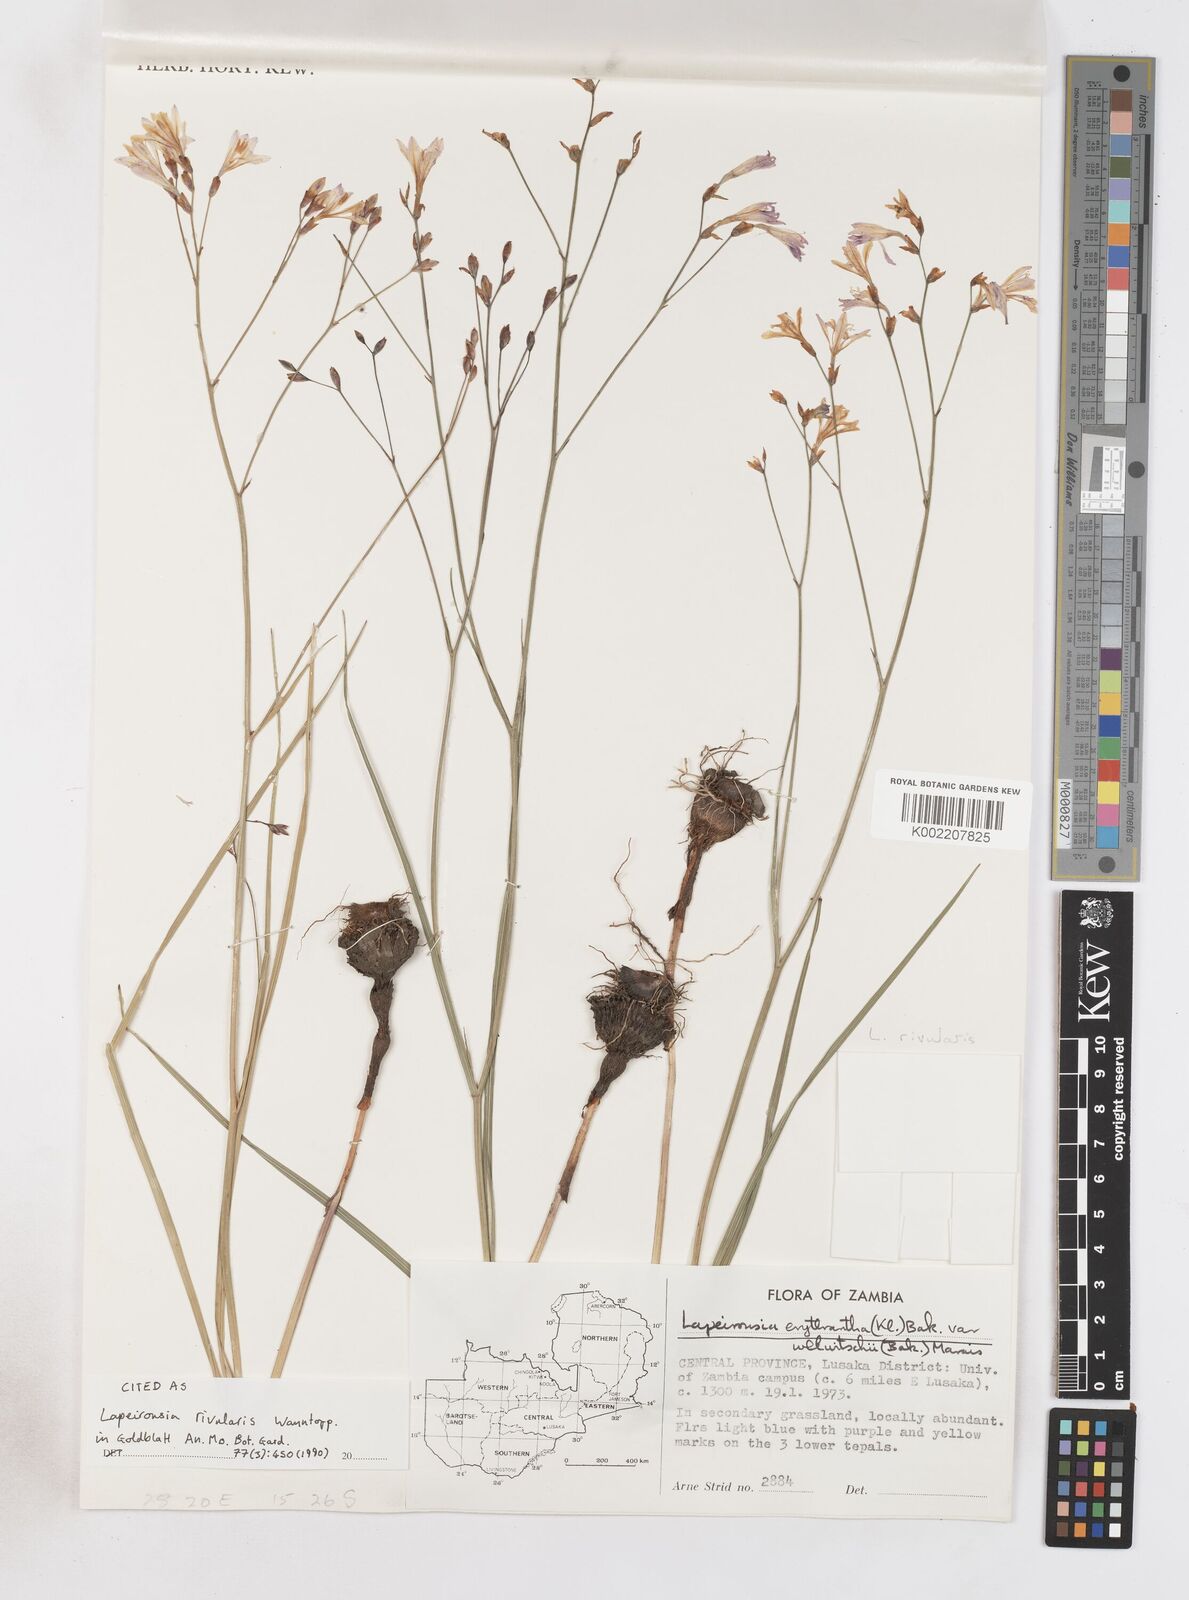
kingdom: Plantae
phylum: Tracheophyta
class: Liliopsida
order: Asparagales
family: Iridaceae
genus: Afrosolen
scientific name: Afrosolen rivularis
